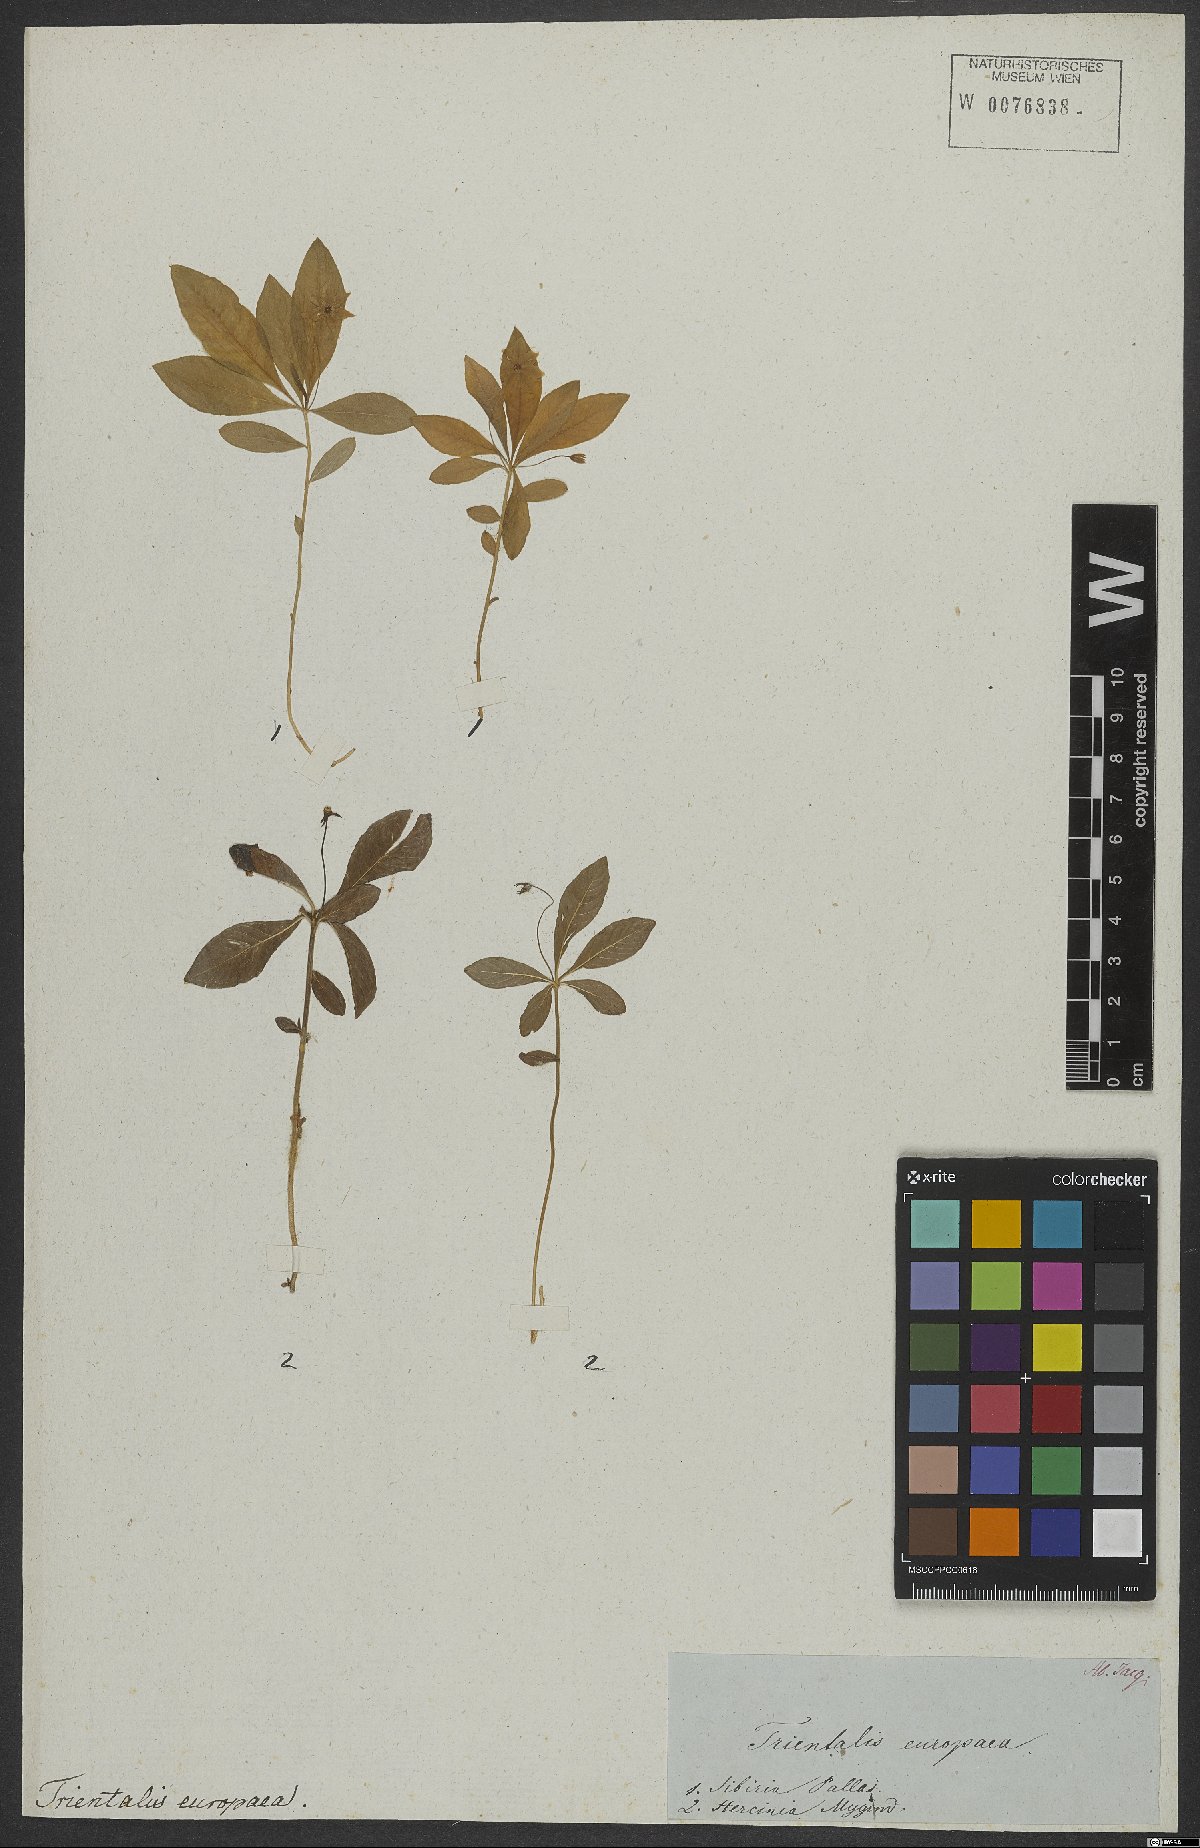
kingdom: Plantae
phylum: Tracheophyta
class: Magnoliopsida
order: Ericales
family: Primulaceae
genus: Lysimachia
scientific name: Lysimachia europaea
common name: Arctic starflower
